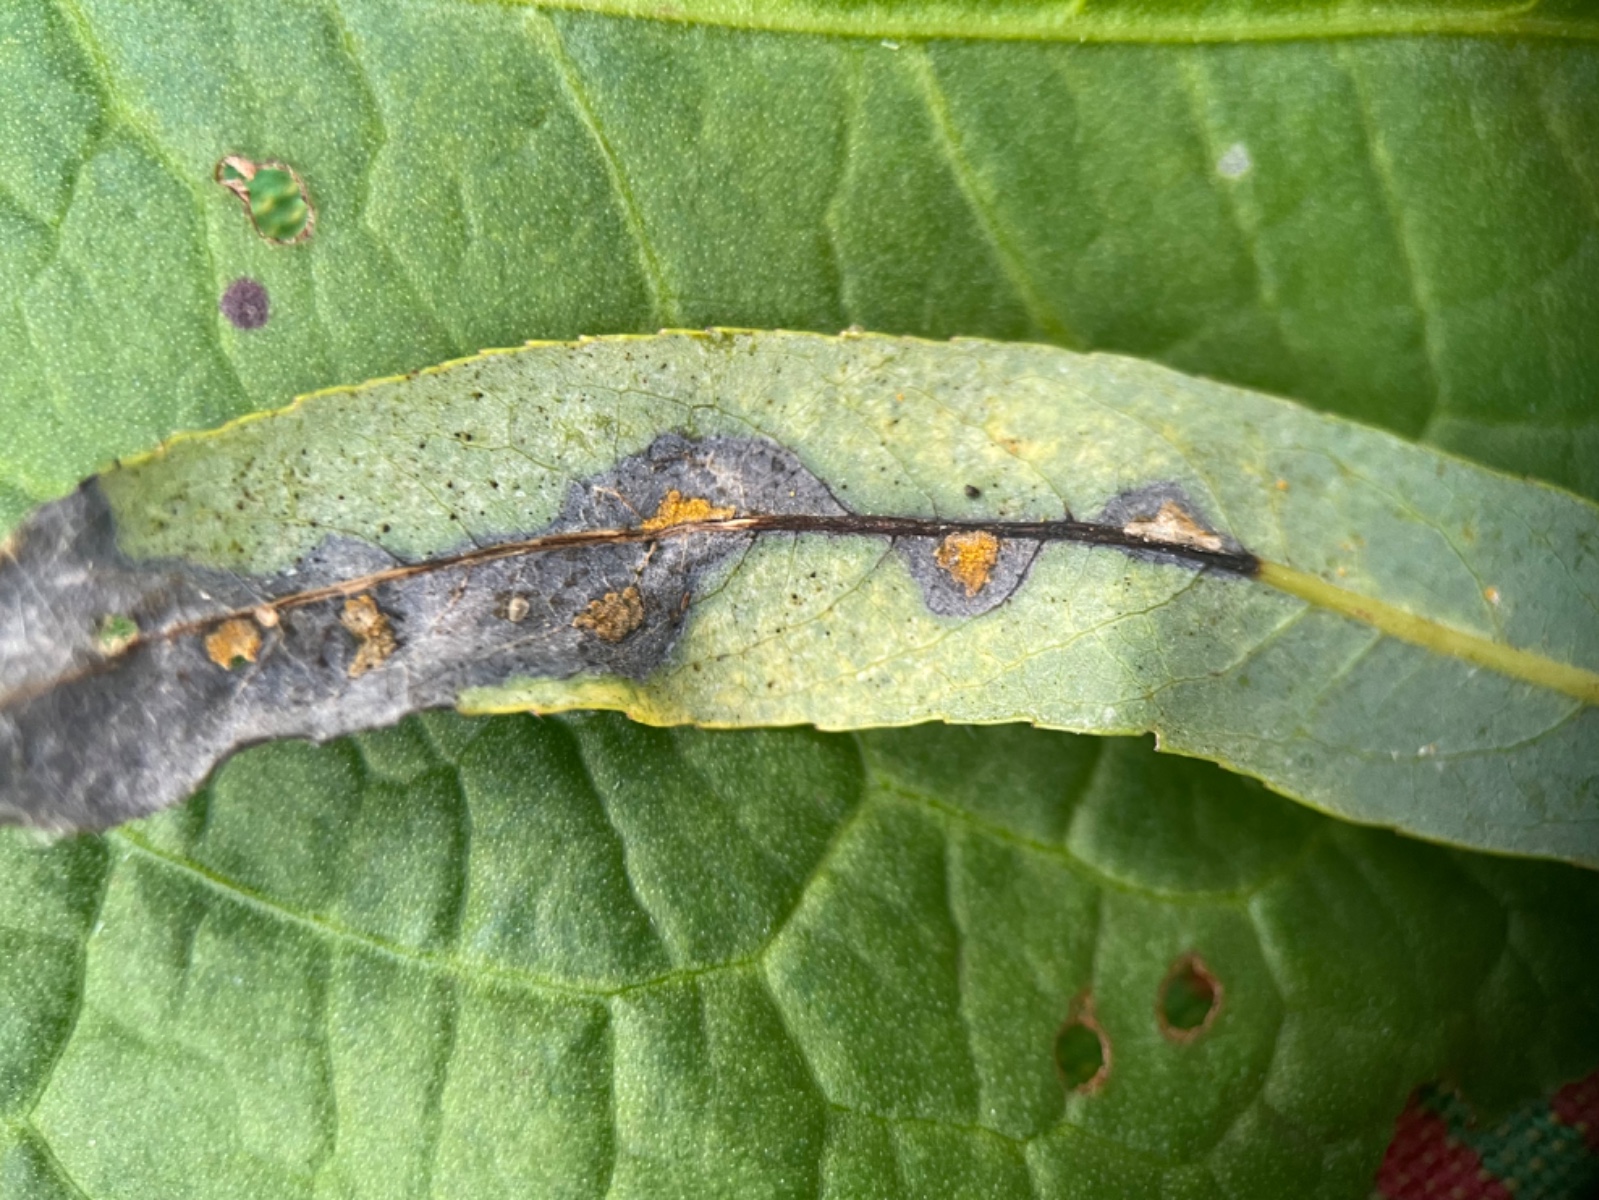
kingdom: Fungi
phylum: Basidiomycota
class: Pucciniomycetes
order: Pucciniales
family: Melampsoraceae
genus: Melampsora
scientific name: Melampsora epitea
